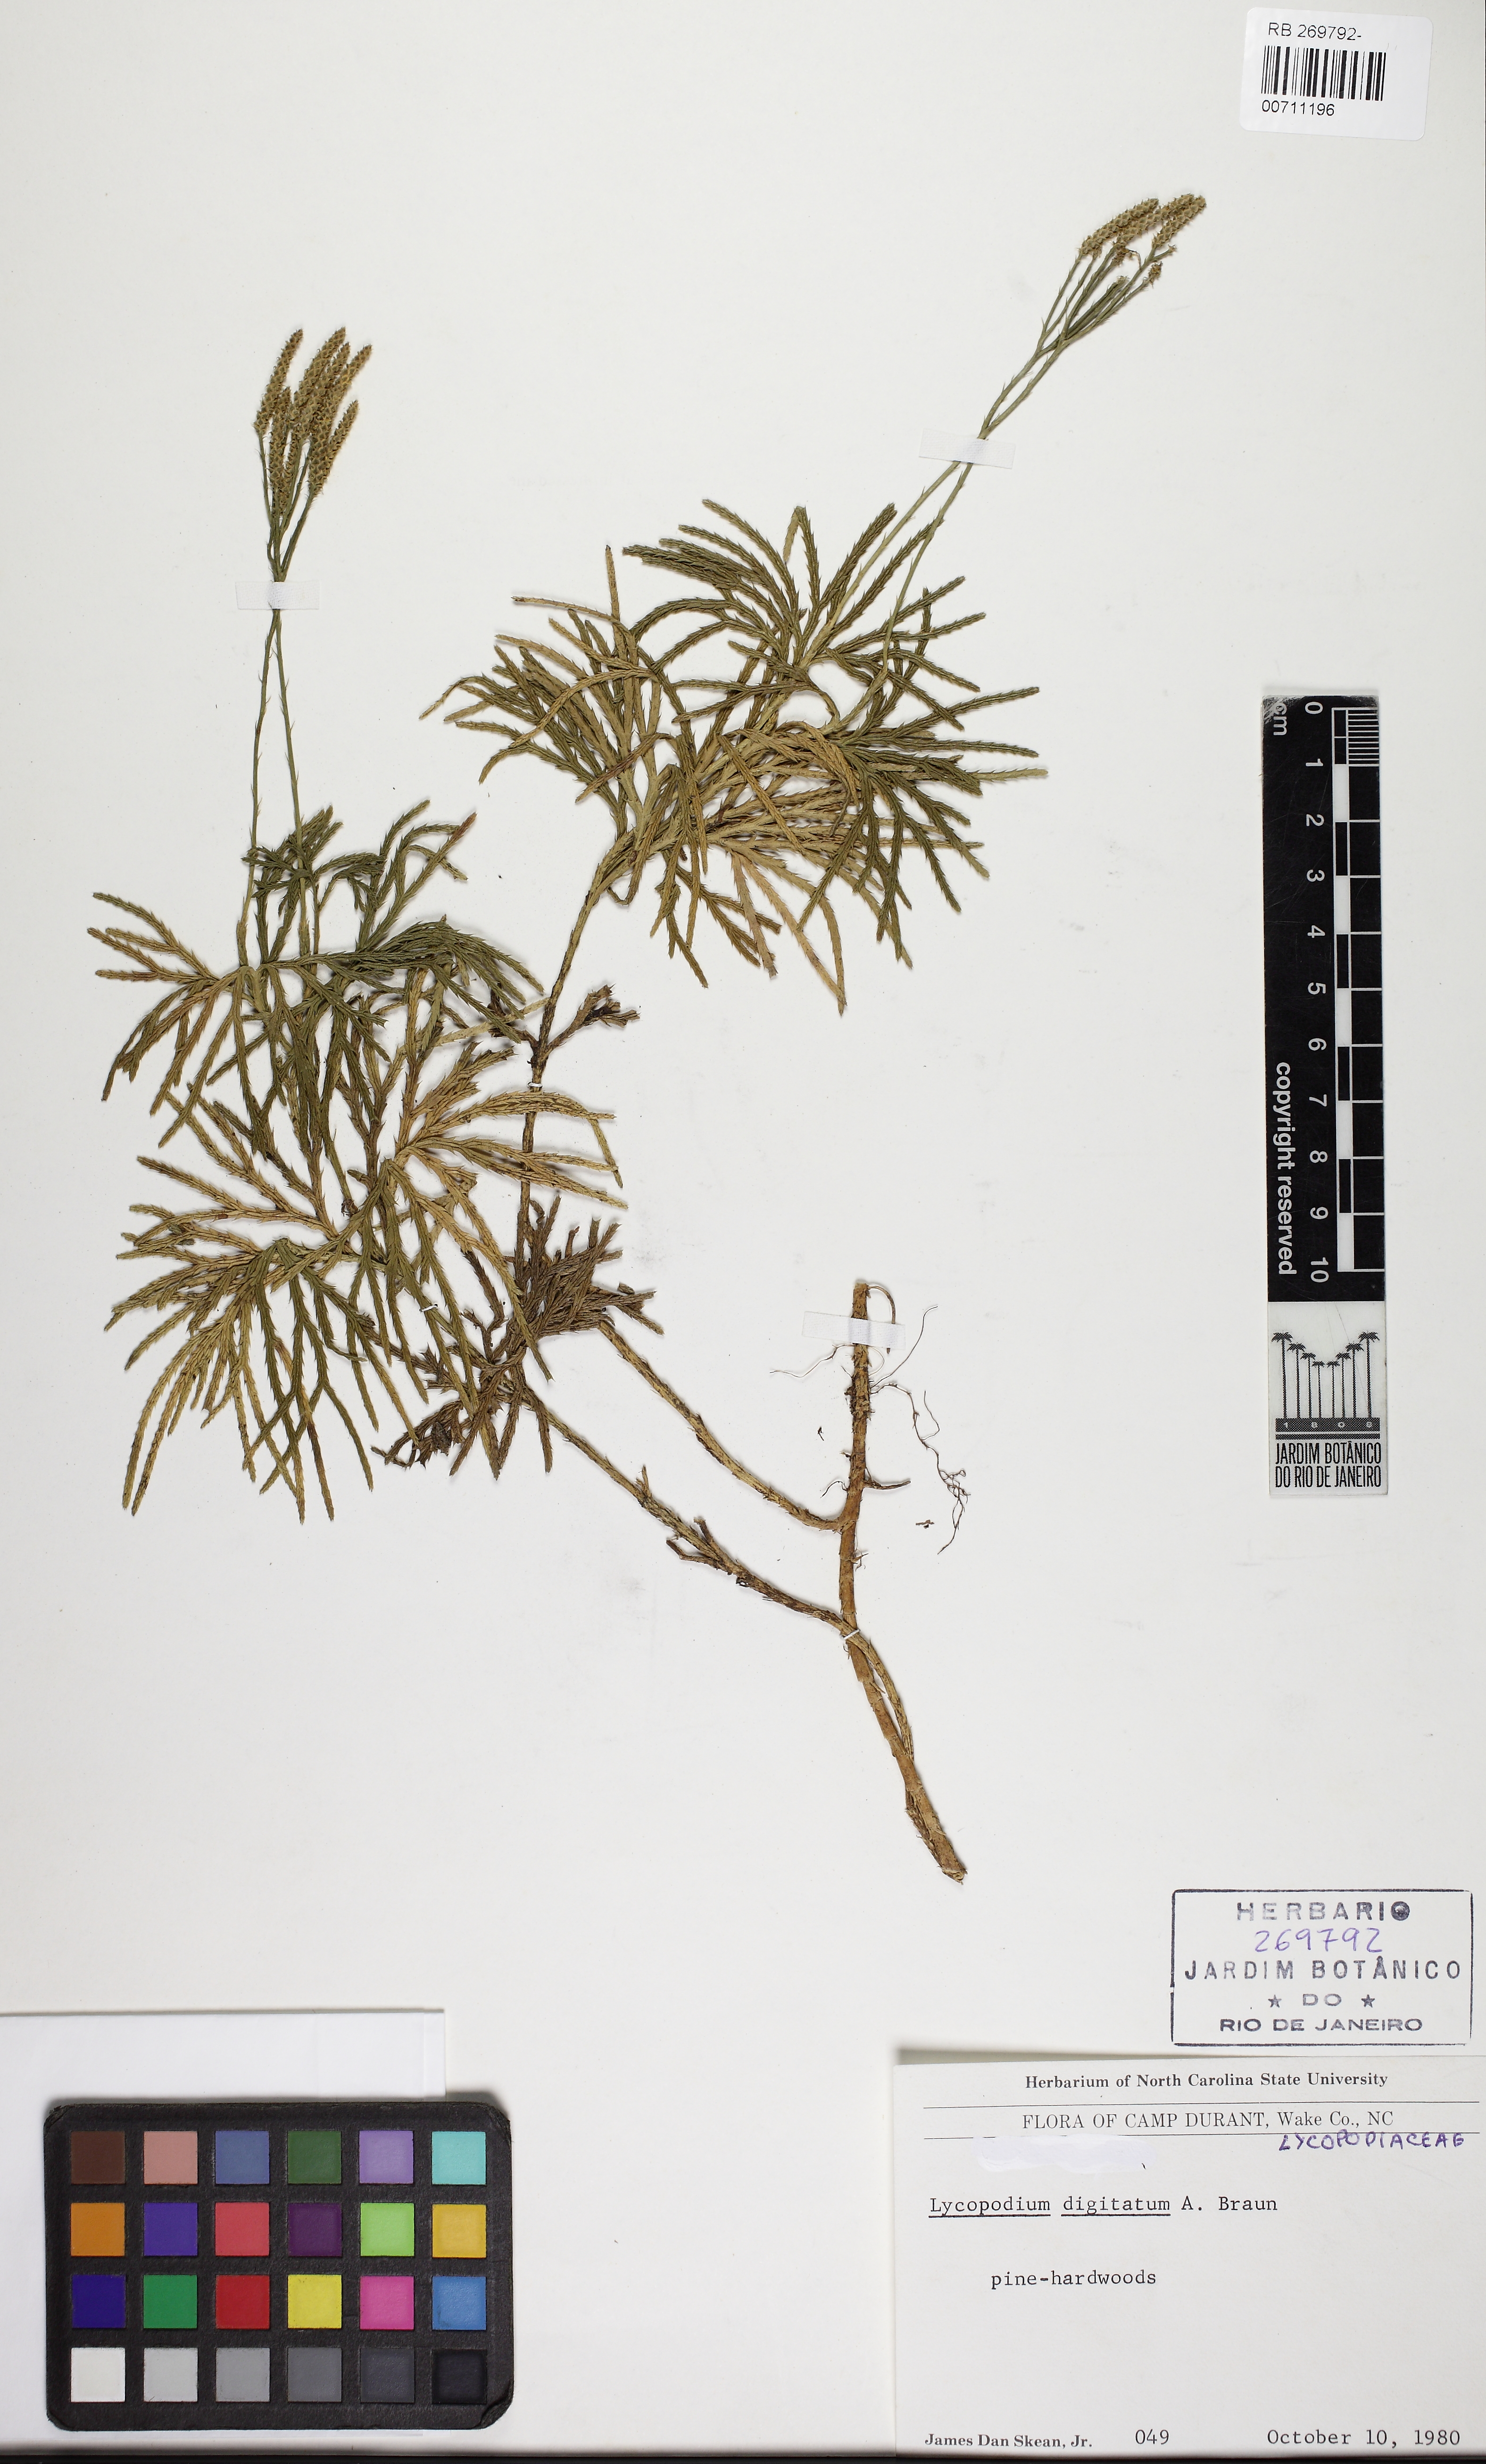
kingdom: Plantae
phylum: Tracheophyta
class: Lycopodiopsida
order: Lycopodiales
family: Lycopodiaceae
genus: Diphasiastrum
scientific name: Diphasiastrum
